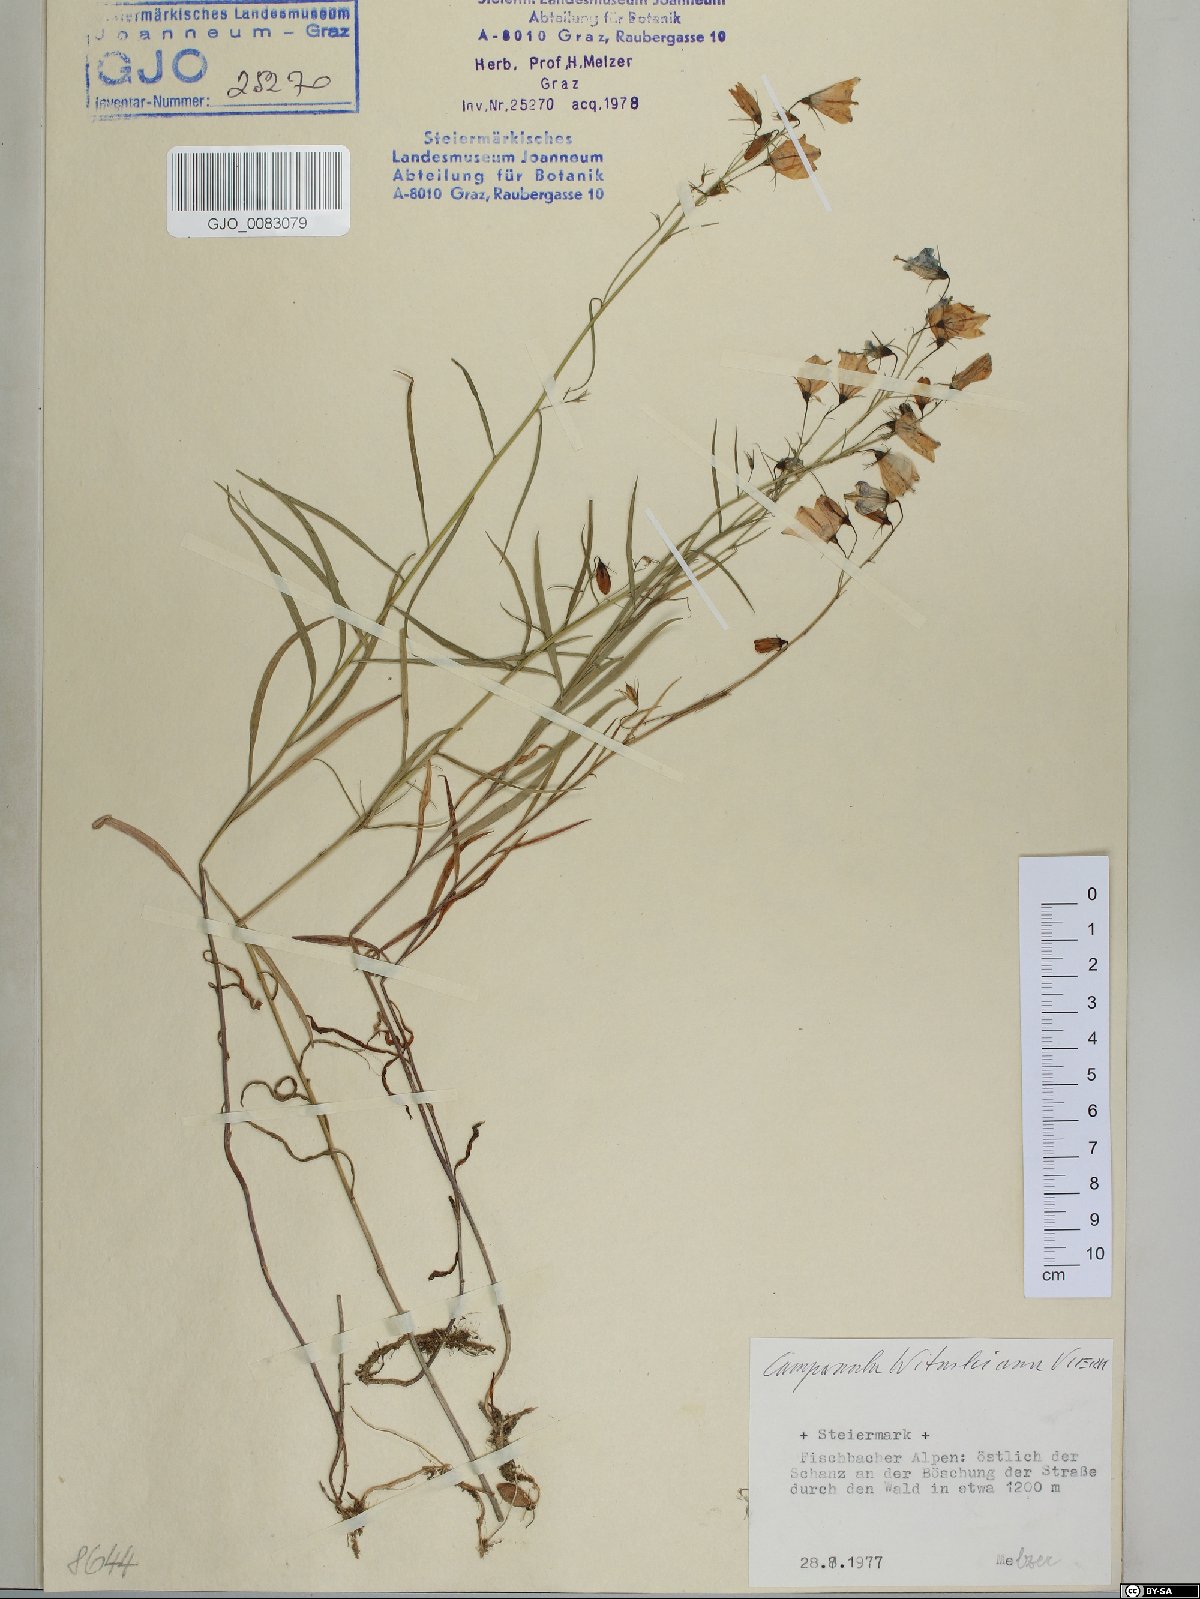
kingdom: Plantae
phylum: Tracheophyta
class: Magnoliopsida
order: Asterales
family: Campanulaceae
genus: Campanula
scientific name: Campanula witasekiana
